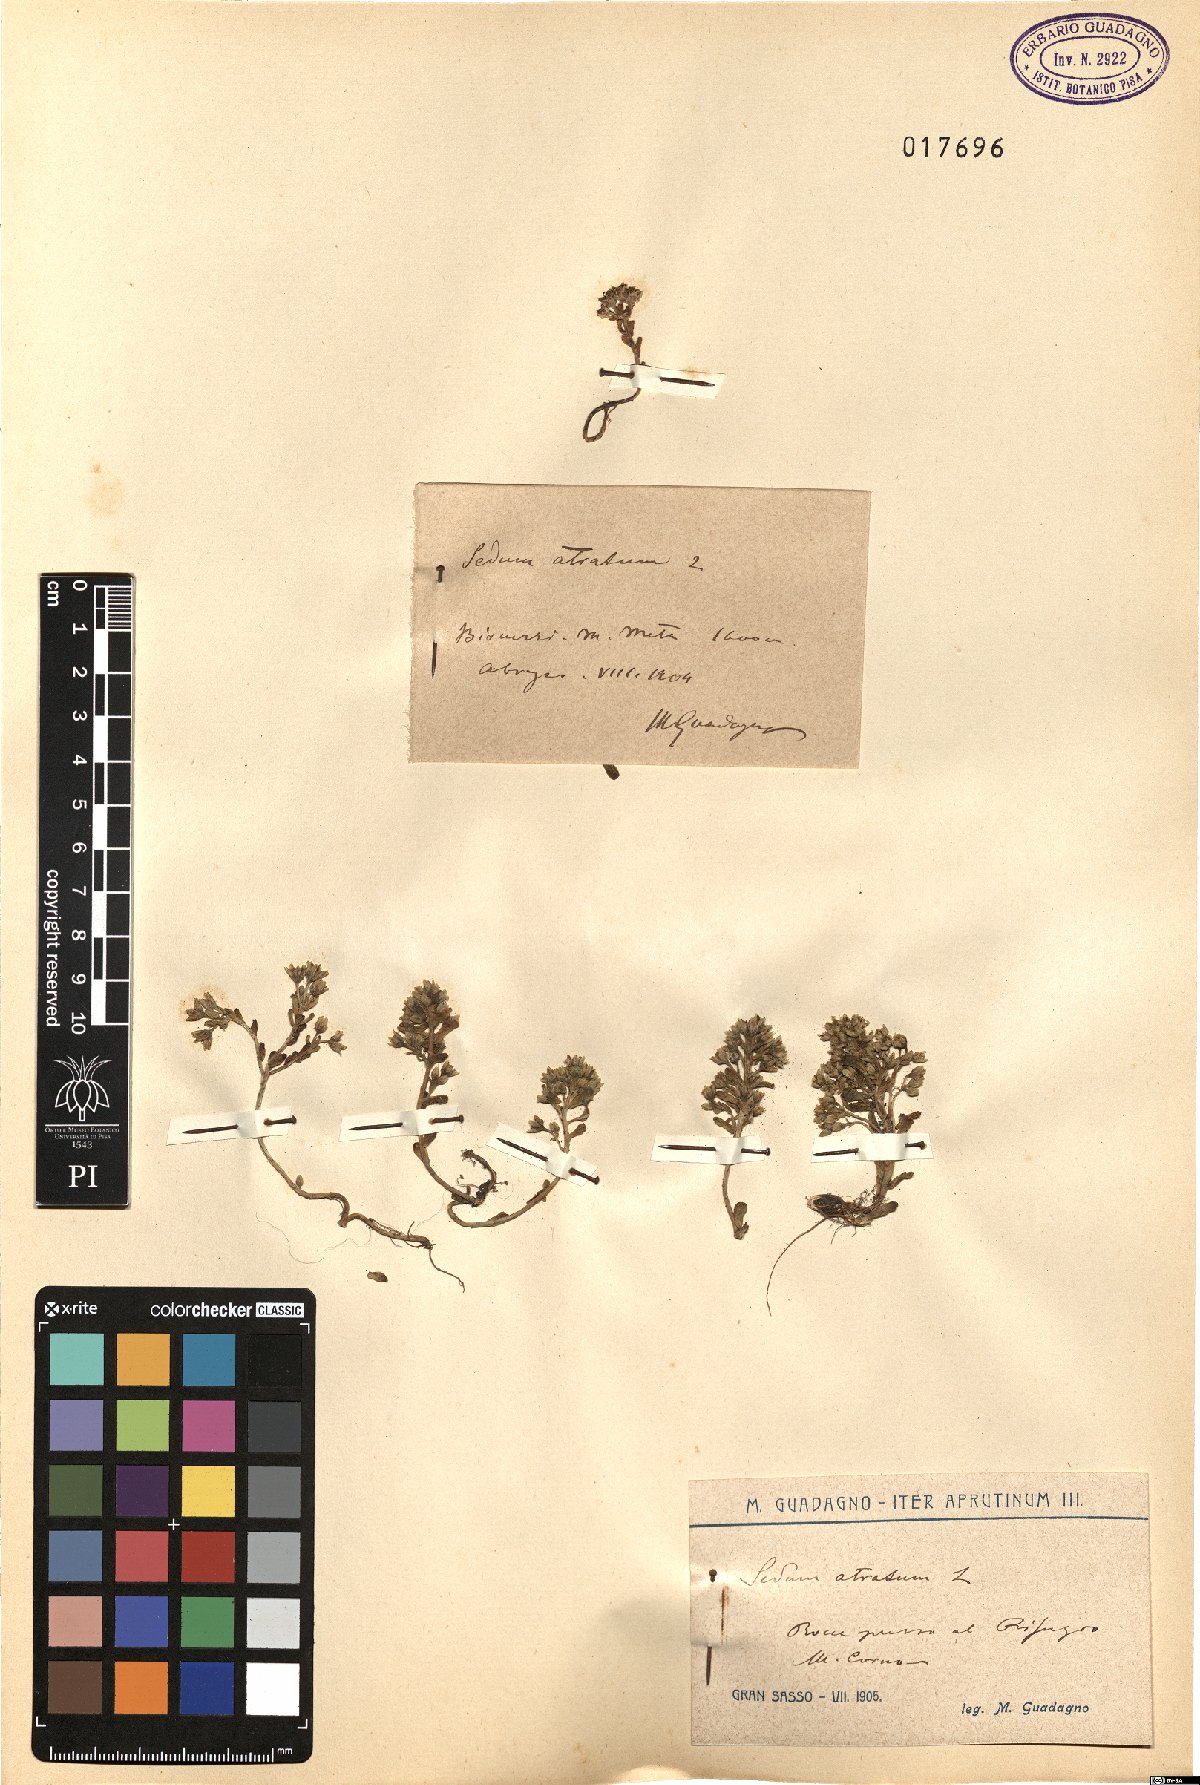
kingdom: Plantae
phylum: Tracheophyta
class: Magnoliopsida
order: Saxifragales
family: Crassulaceae
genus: Sedum
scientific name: Sedum atratum
